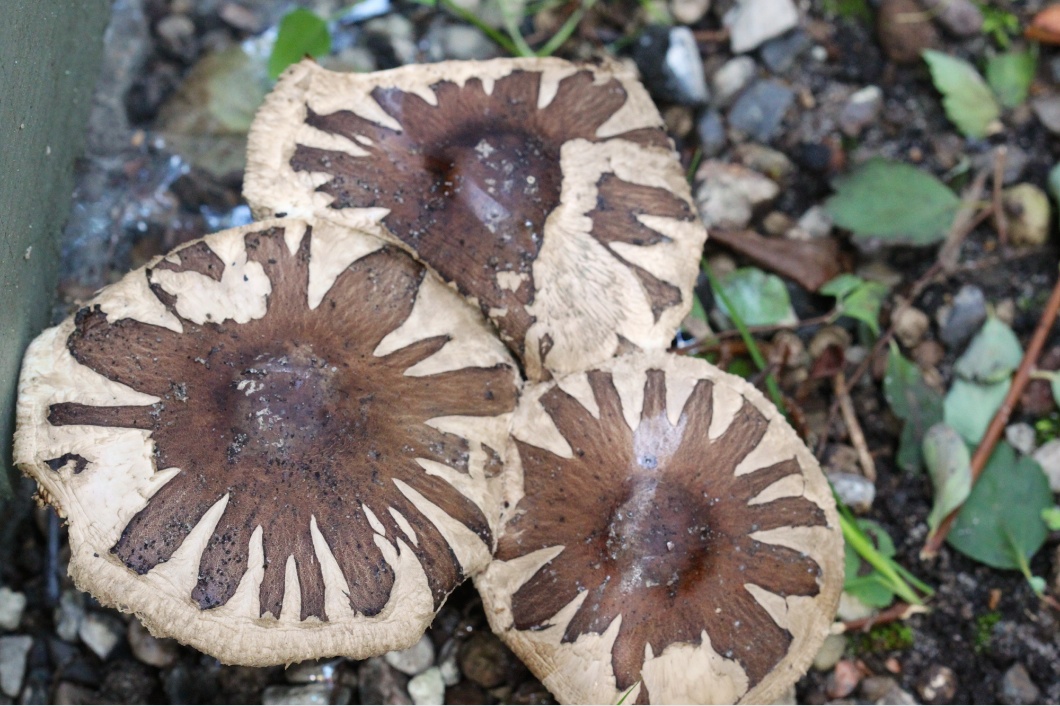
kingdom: Fungi
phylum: Basidiomycota
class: Agaricomycetes
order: Agaricales
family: Agaricaceae
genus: Chlorophyllum
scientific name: Chlorophyllum brunneum
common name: giftig rabarberhat
